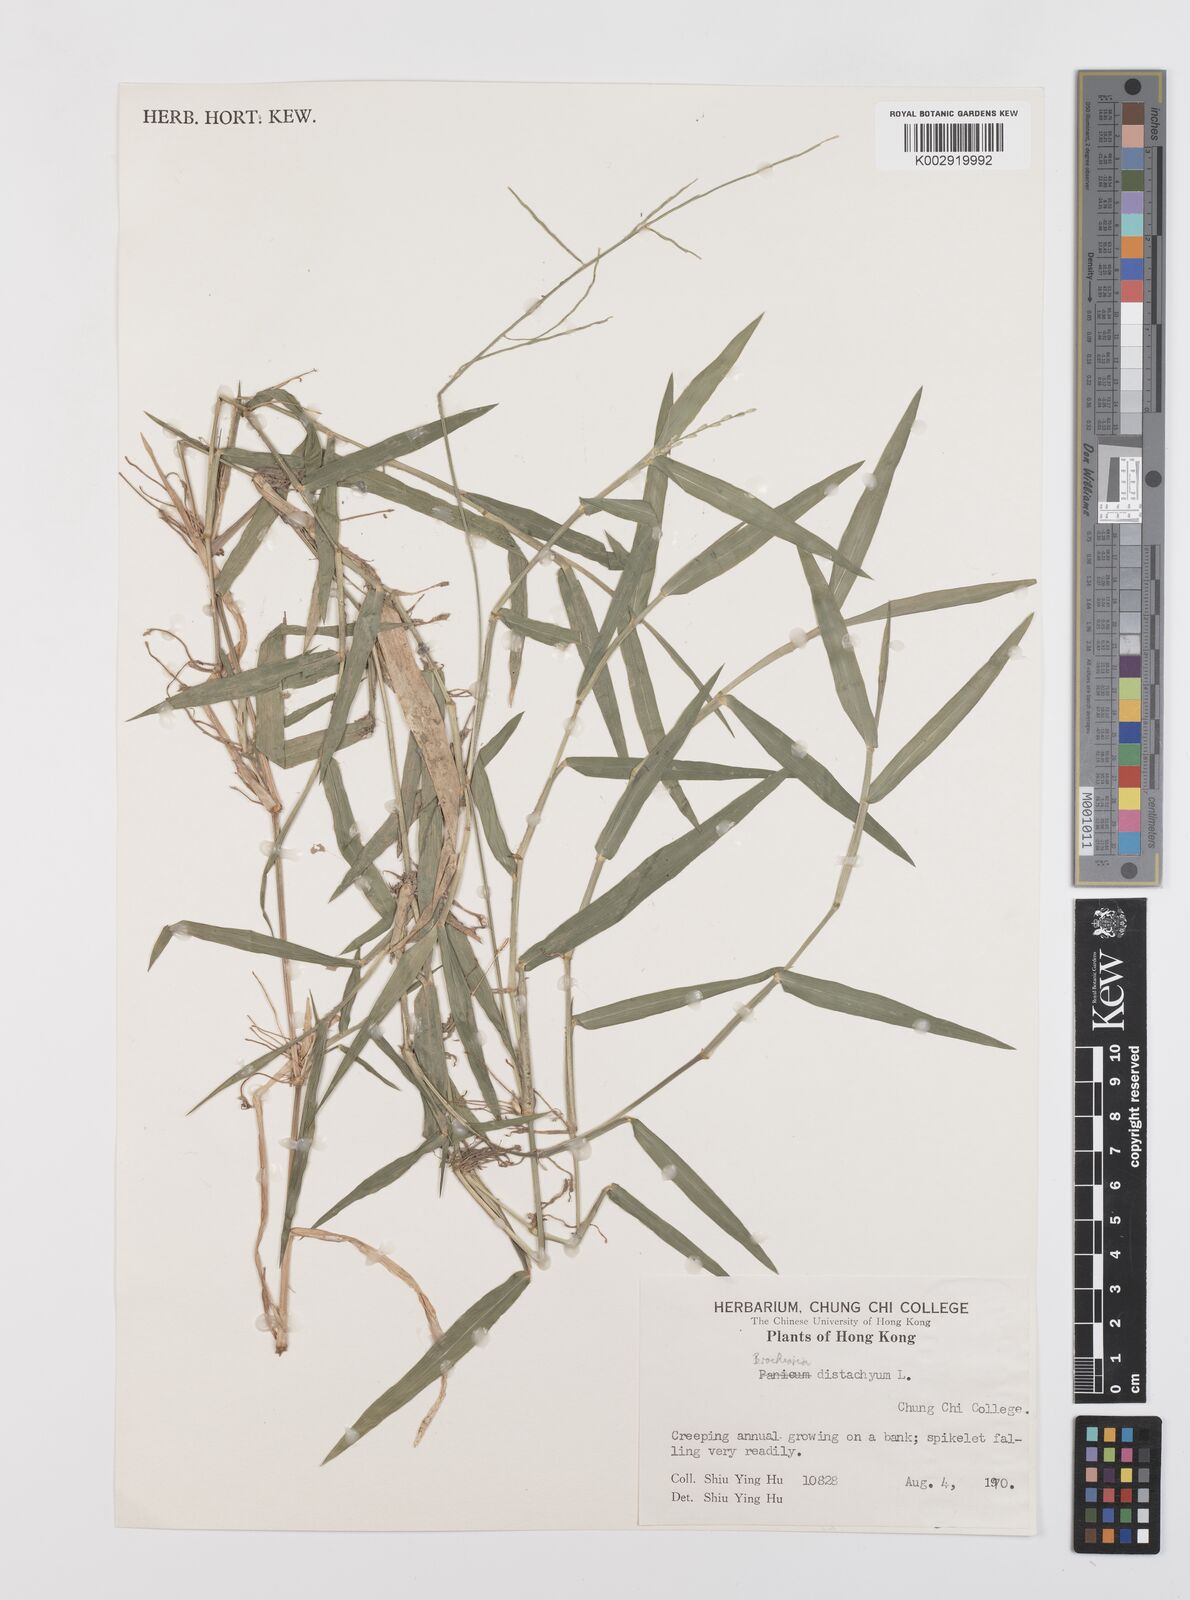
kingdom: Plantae
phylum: Tracheophyta
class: Liliopsida
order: Poales
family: Poaceae
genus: Urochloa
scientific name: Urochloa subquadripara
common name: Armgrass millet
